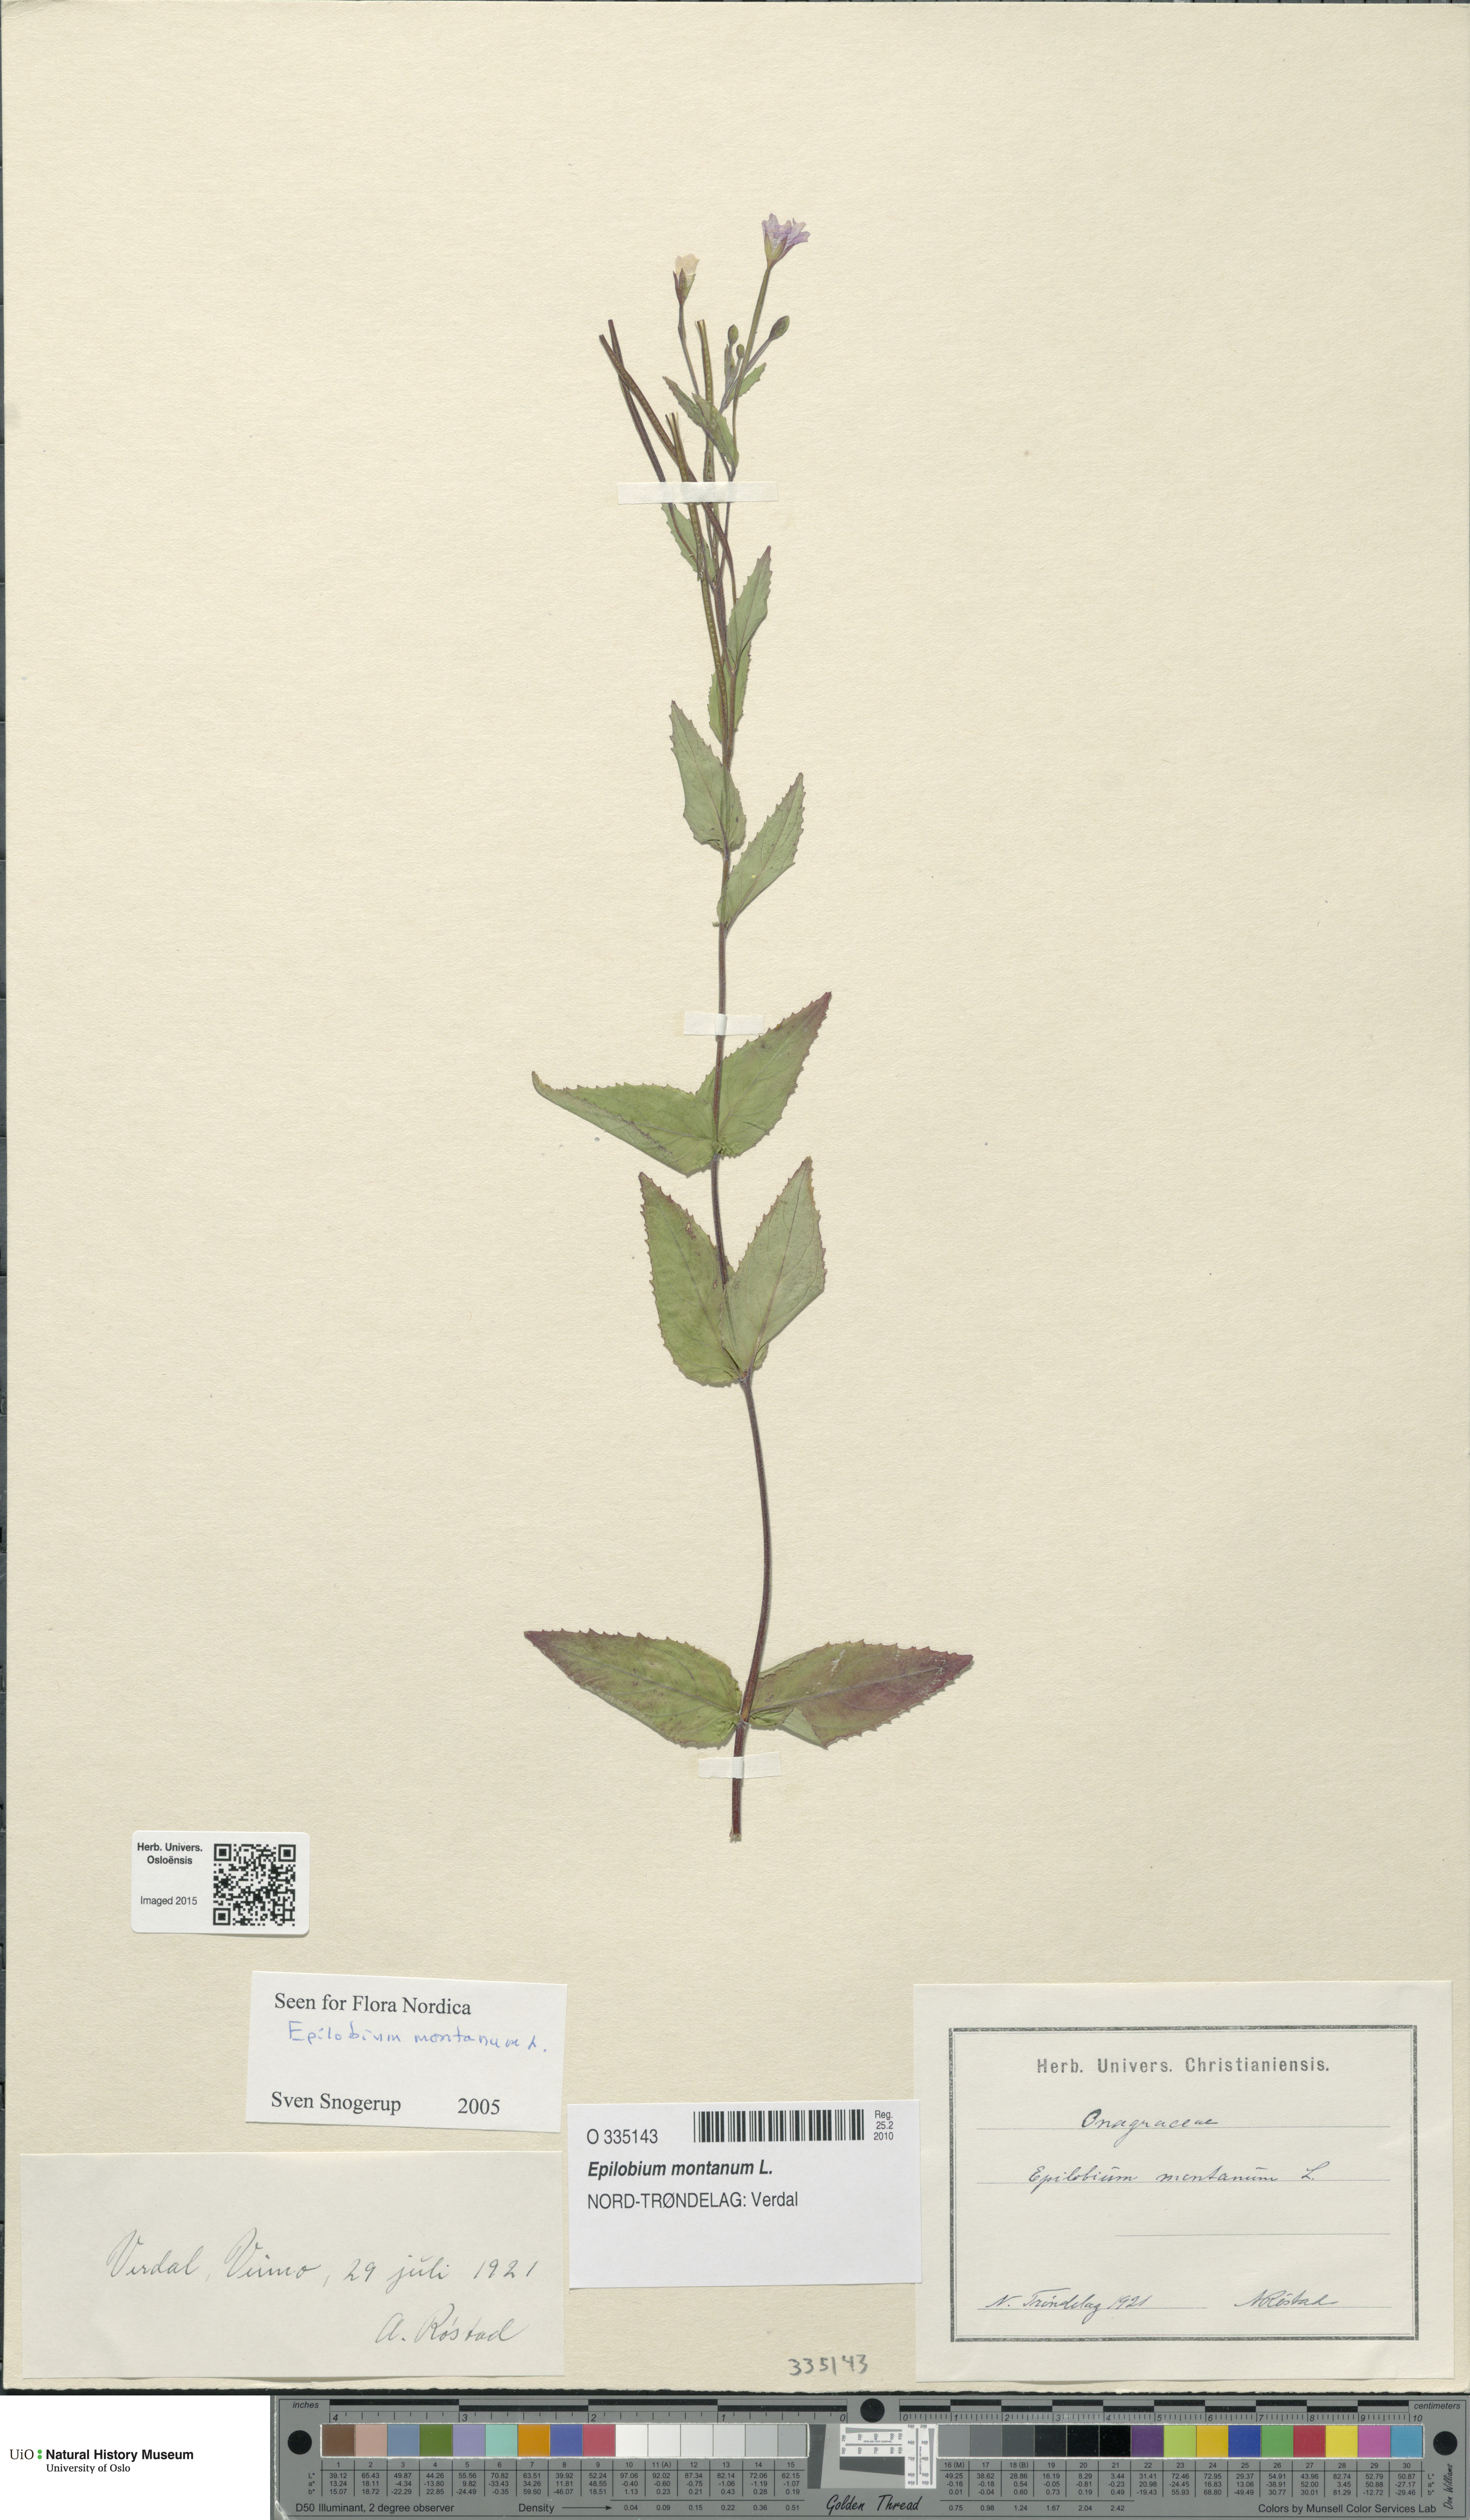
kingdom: Plantae
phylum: Tracheophyta
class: Magnoliopsida
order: Myrtales
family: Onagraceae
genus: Epilobium
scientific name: Epilobium montanum
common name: Broad-leaved willowherb
